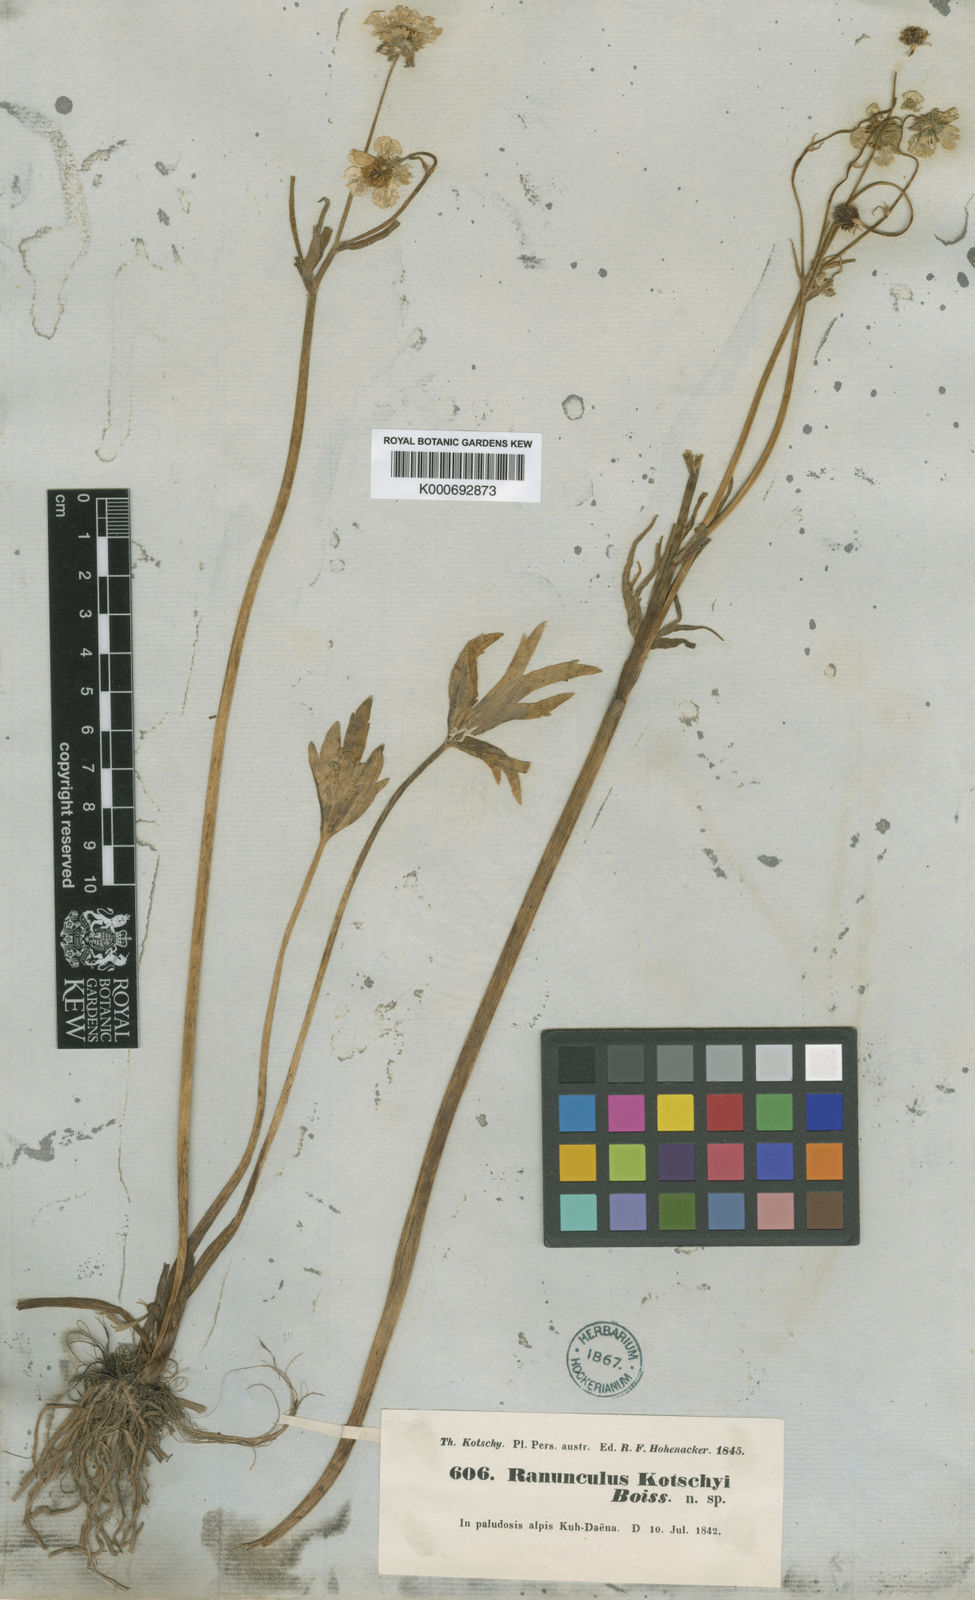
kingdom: Plantae
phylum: Tracheophyta
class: Magnoliopsida
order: Ranunculales
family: Ranunculaceae
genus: Ranunculus
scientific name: Ranunculus kotschyi
